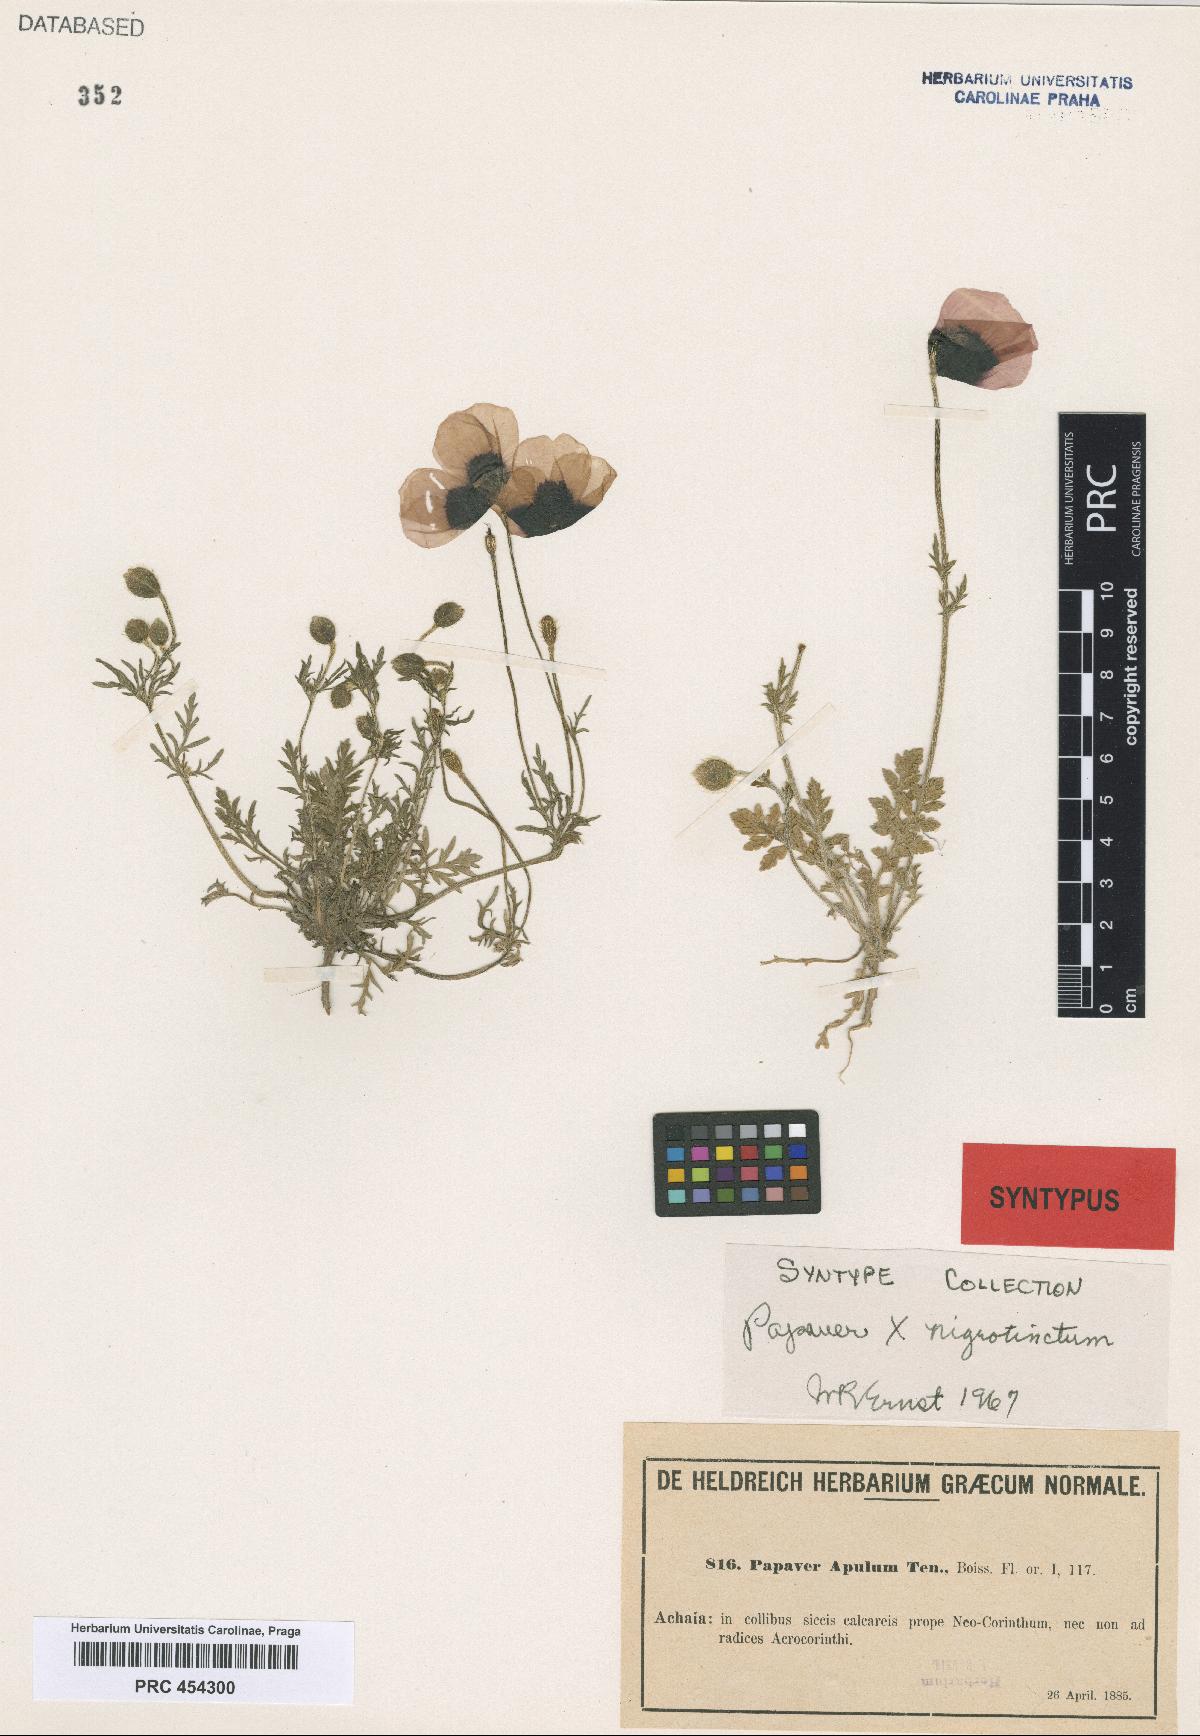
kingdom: Plantae
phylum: Tracheophyta
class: Magnoliopsida
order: Ranunculales
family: Papaveraceae
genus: Roemeria
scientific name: Roemeria apula
